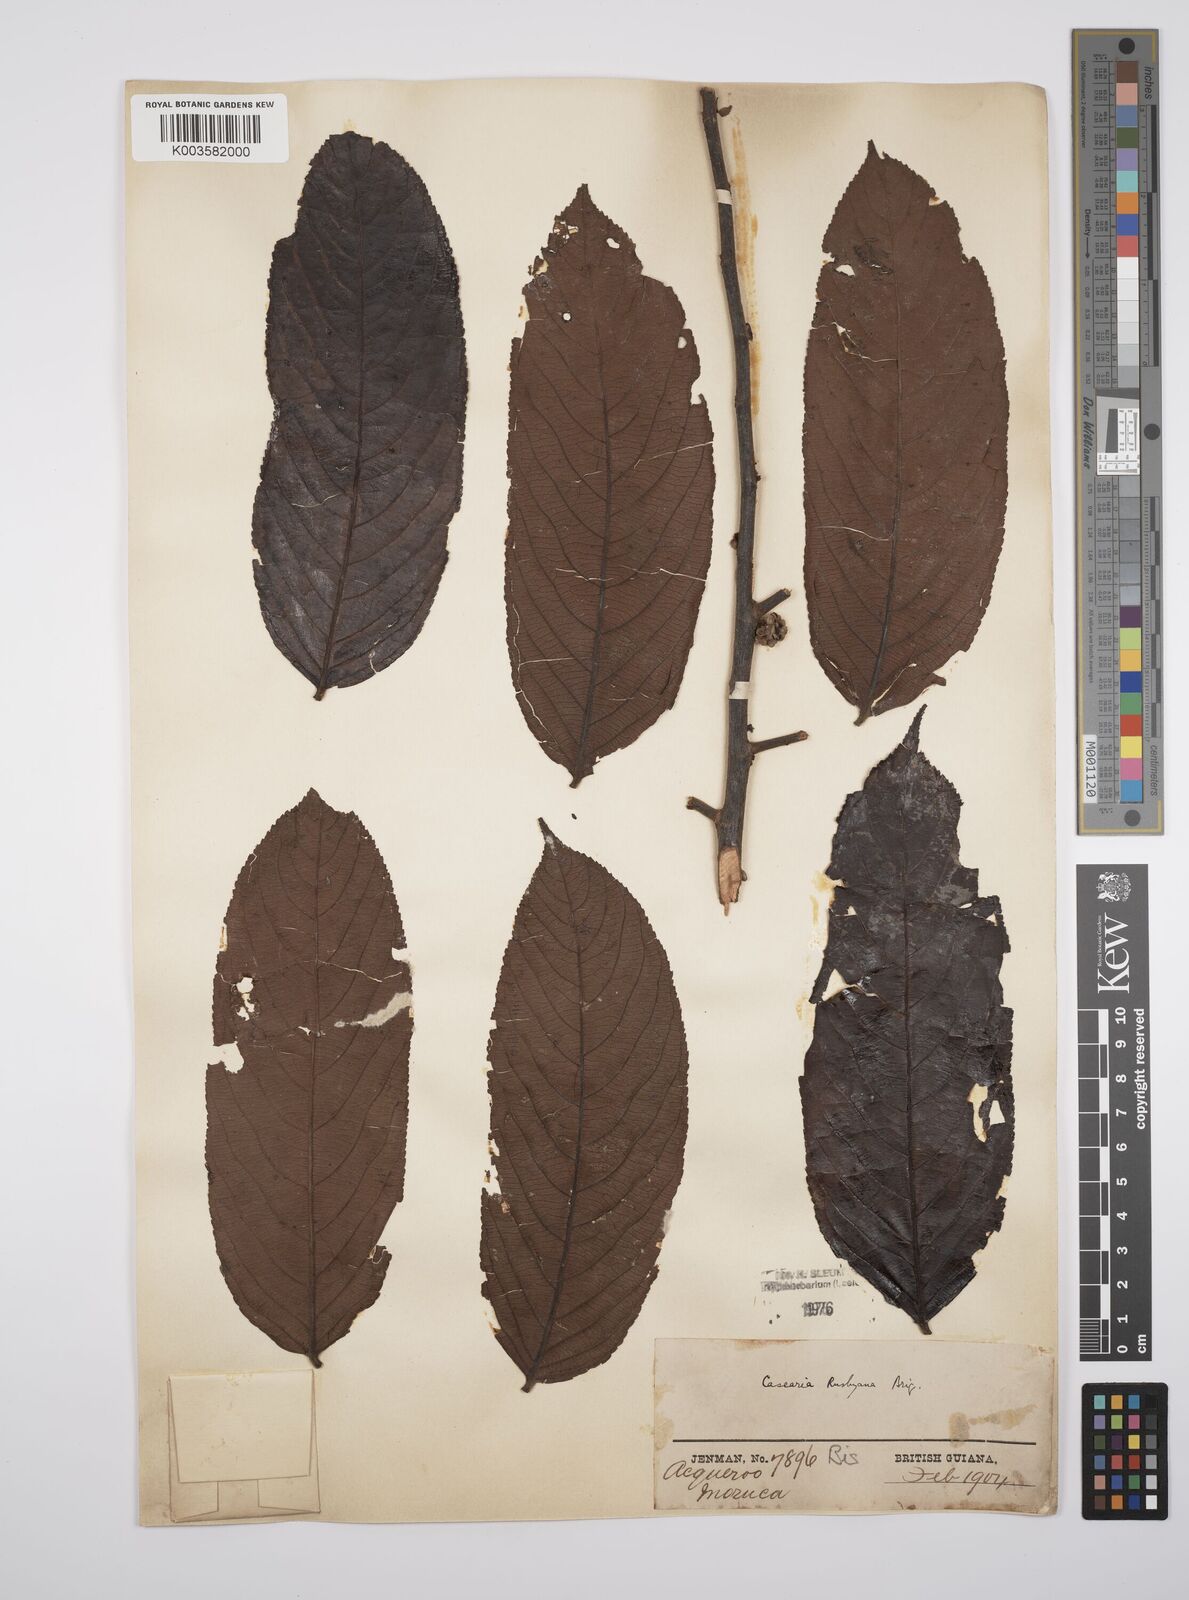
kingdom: Plantae
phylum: Tracheophyta
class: Magnoliopsida
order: Malpighiales
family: Salicaceae
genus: Casearia
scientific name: Casearia rusbyana
